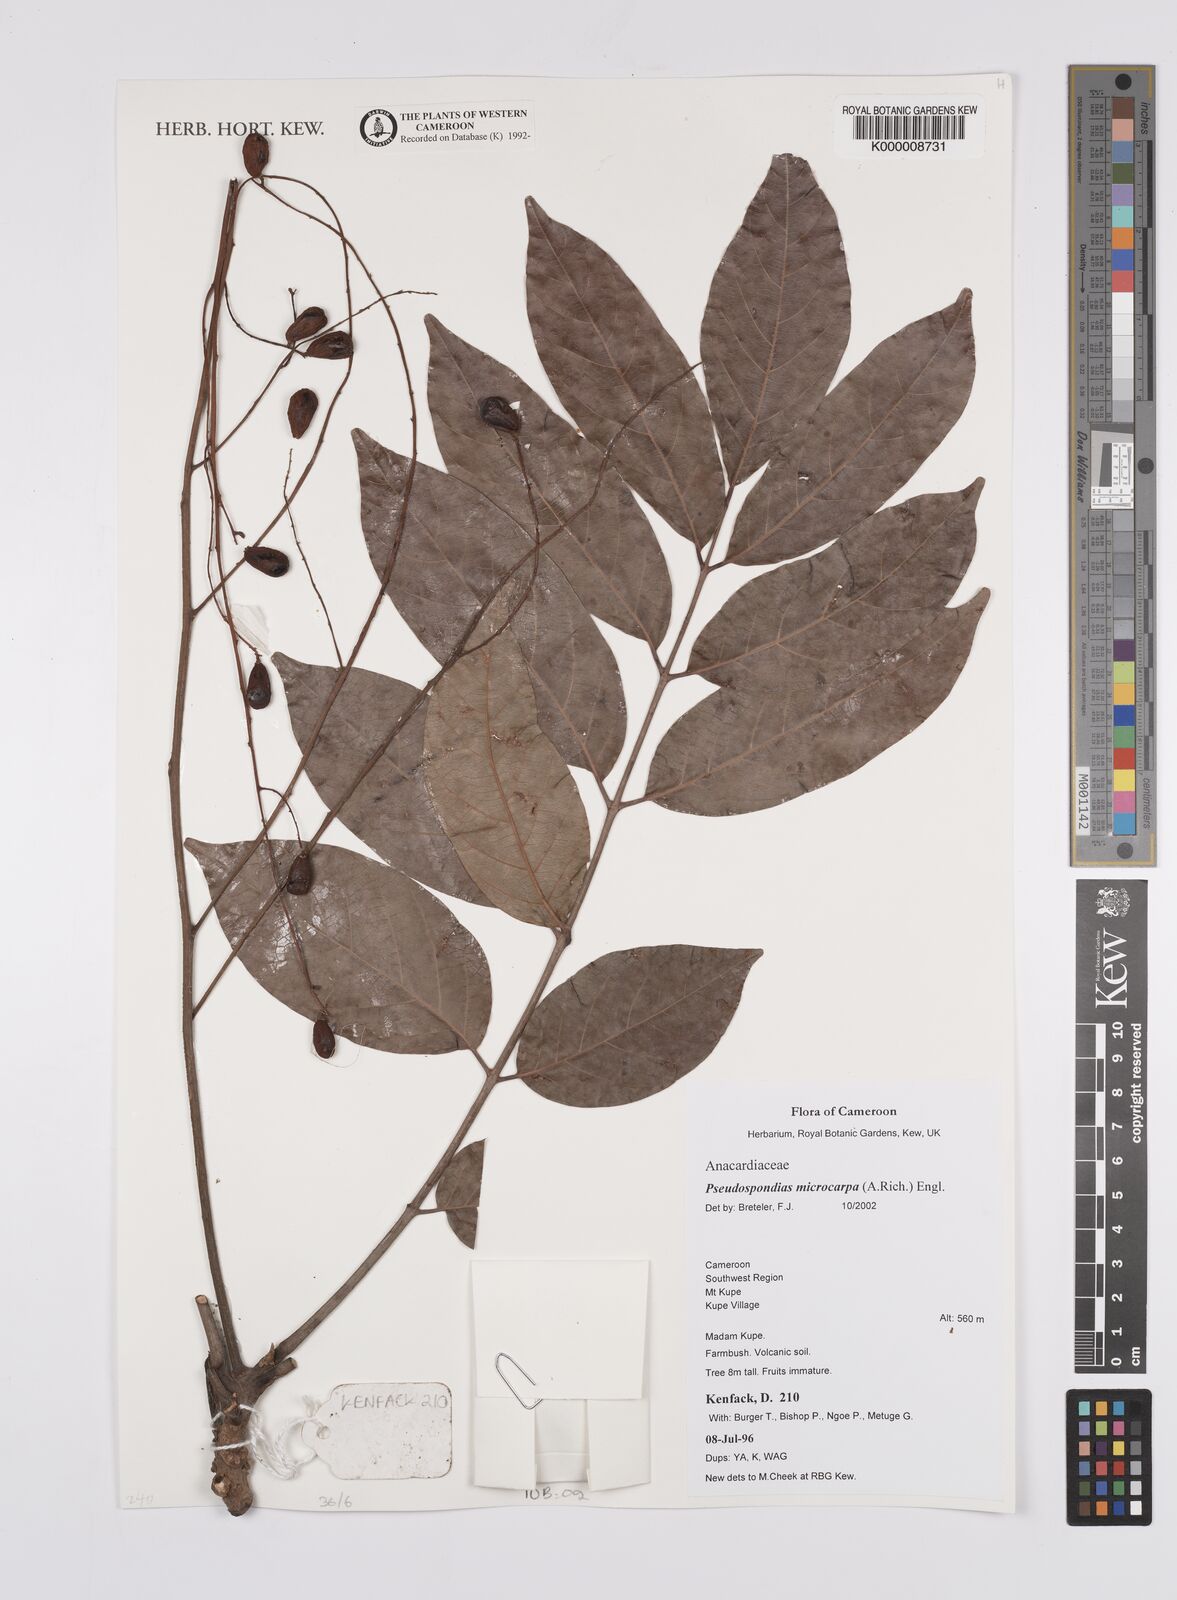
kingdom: Plantae
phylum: Tracheophyta
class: Magnoliopsida
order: Sapindales
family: Anacardiaceae
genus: Pseudospondias
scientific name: Pseudospondias microcarpa
